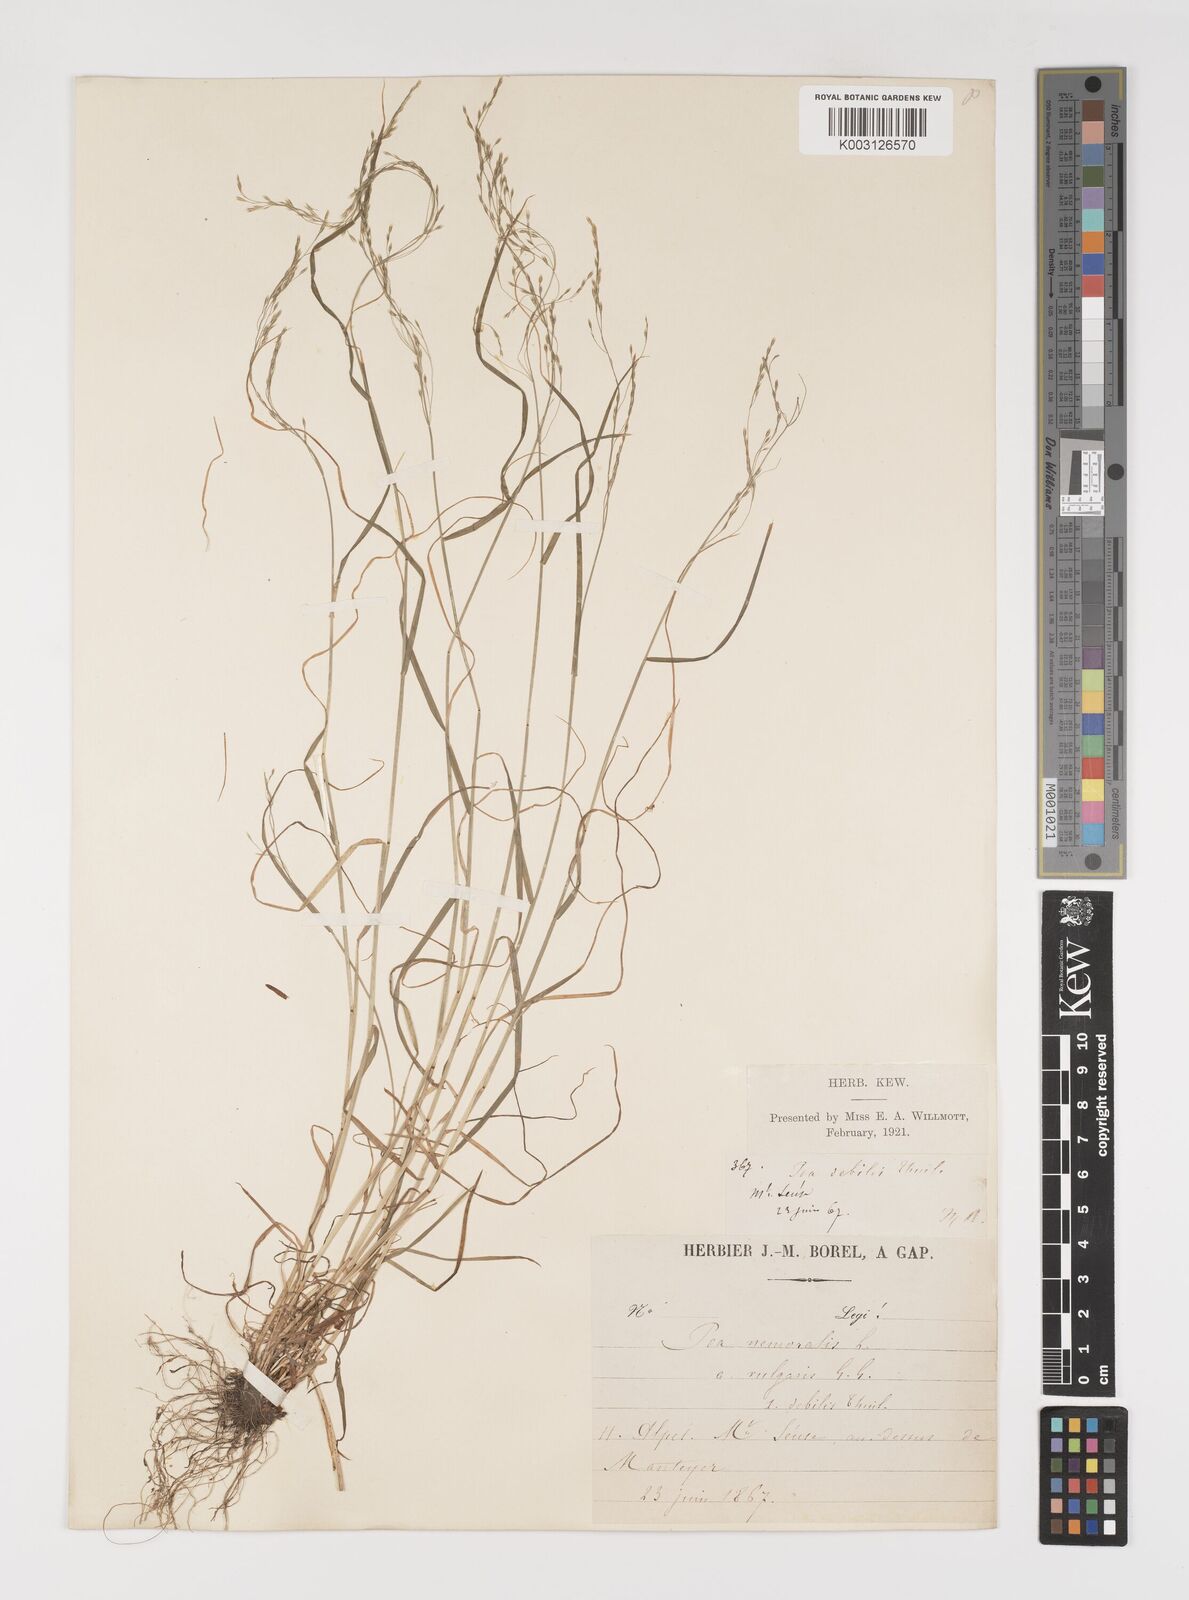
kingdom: Plantae
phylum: Tracheophyta
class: Liliopsida
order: Poales
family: Poaceae
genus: Poa
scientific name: Poa nemoralis
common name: Wood bluegrass
